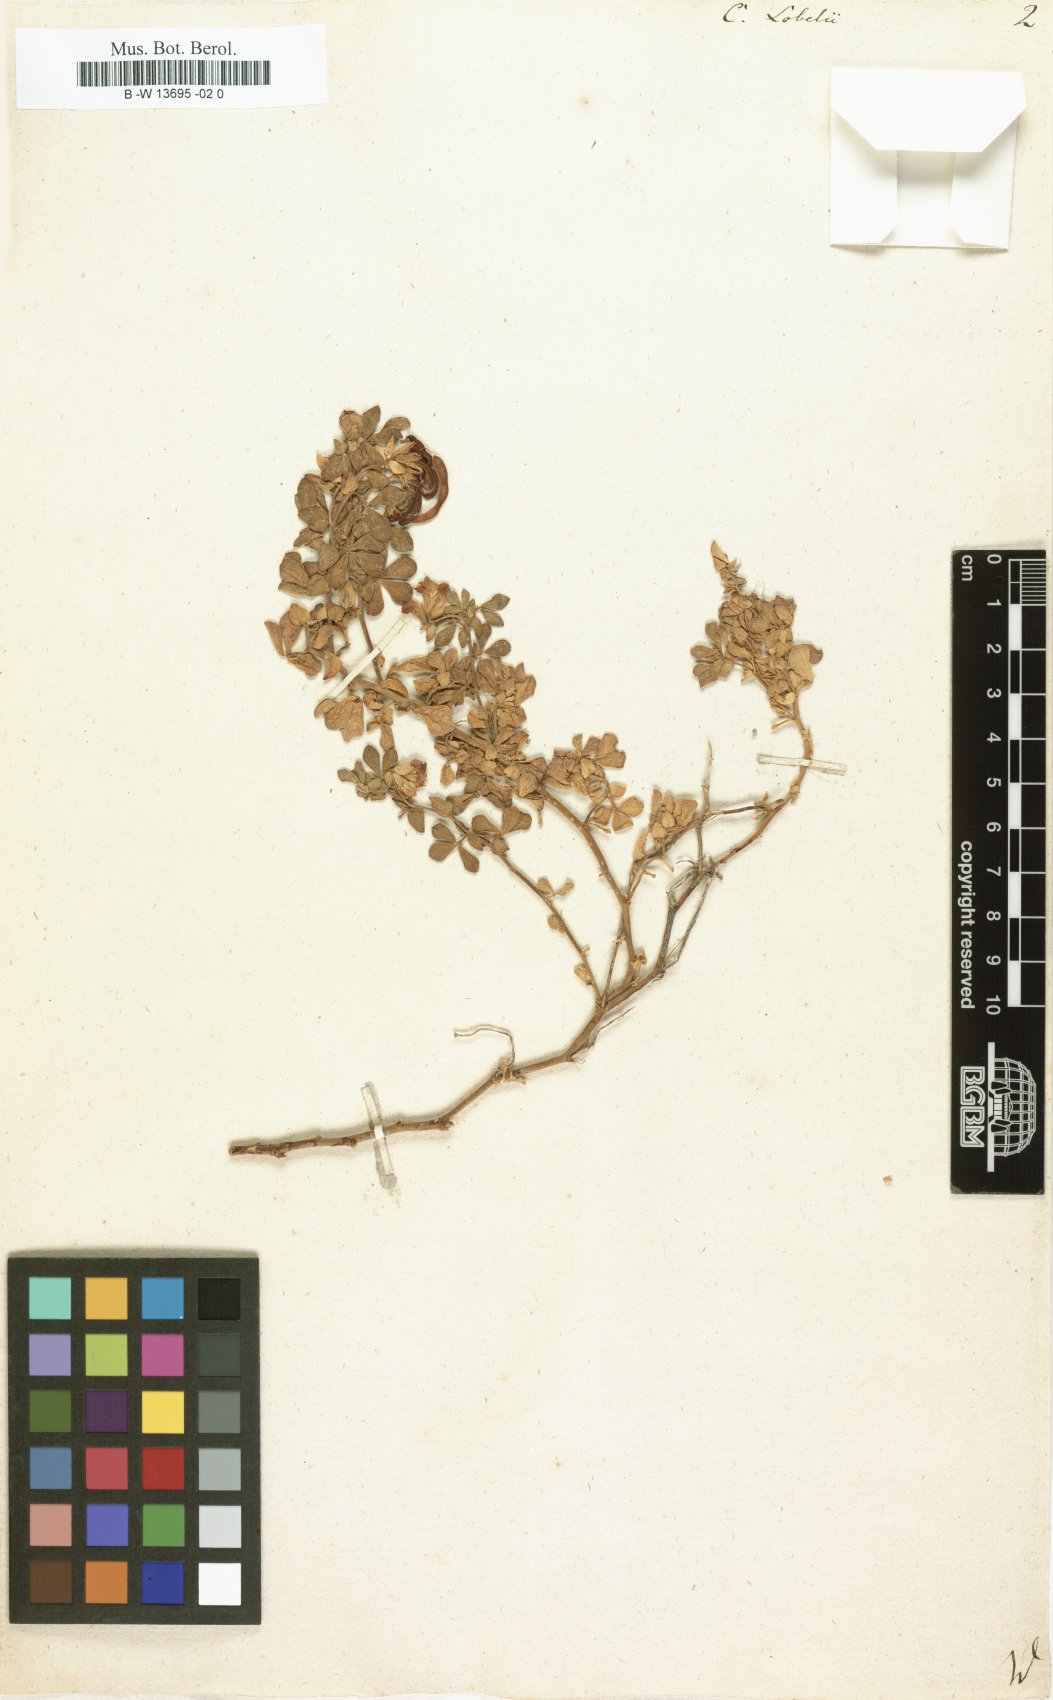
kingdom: Plantae
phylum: Tracheophyta
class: Magnoliopsida
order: Fabales
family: Fabaceae
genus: Coronilla
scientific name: Coronilla
